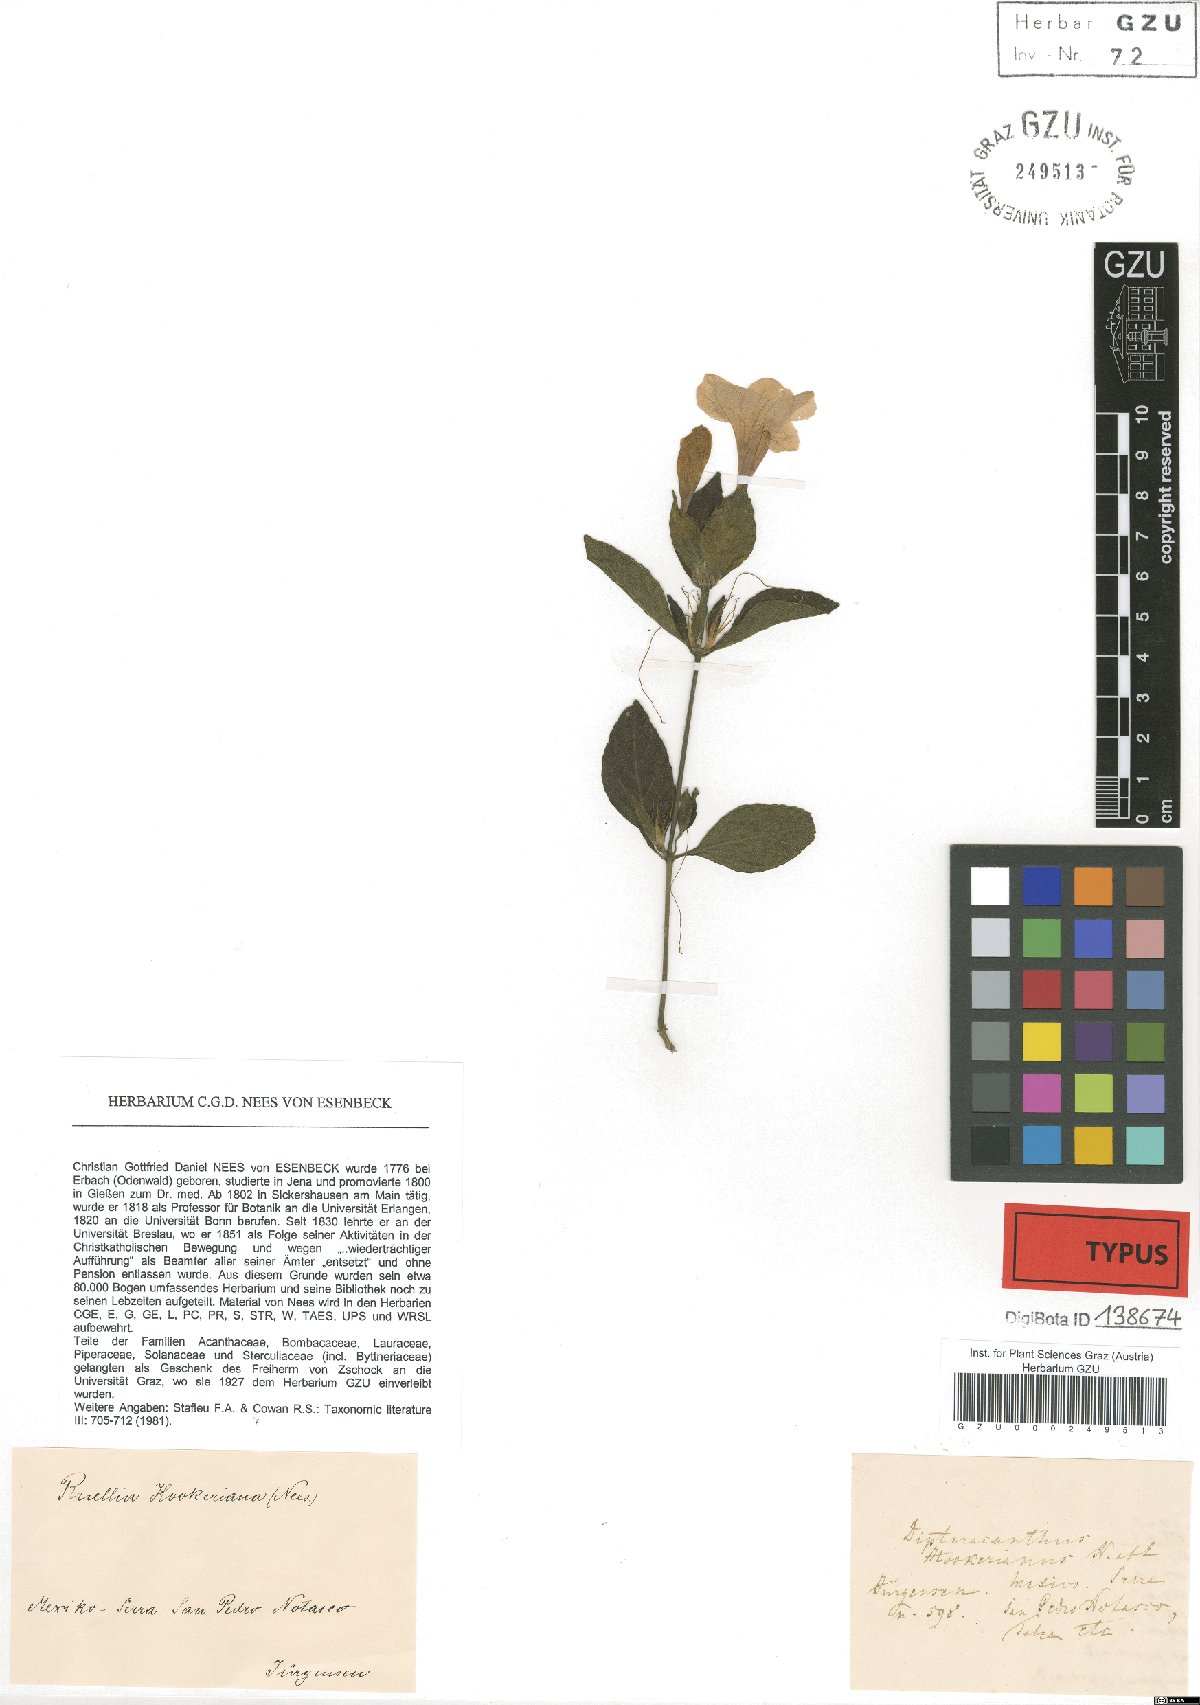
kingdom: Plantae
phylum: Tracheophyta
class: Magnoliopsida
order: Lamiales
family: Acanthaceae
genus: Ruellia
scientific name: Ruellia hookeriana
